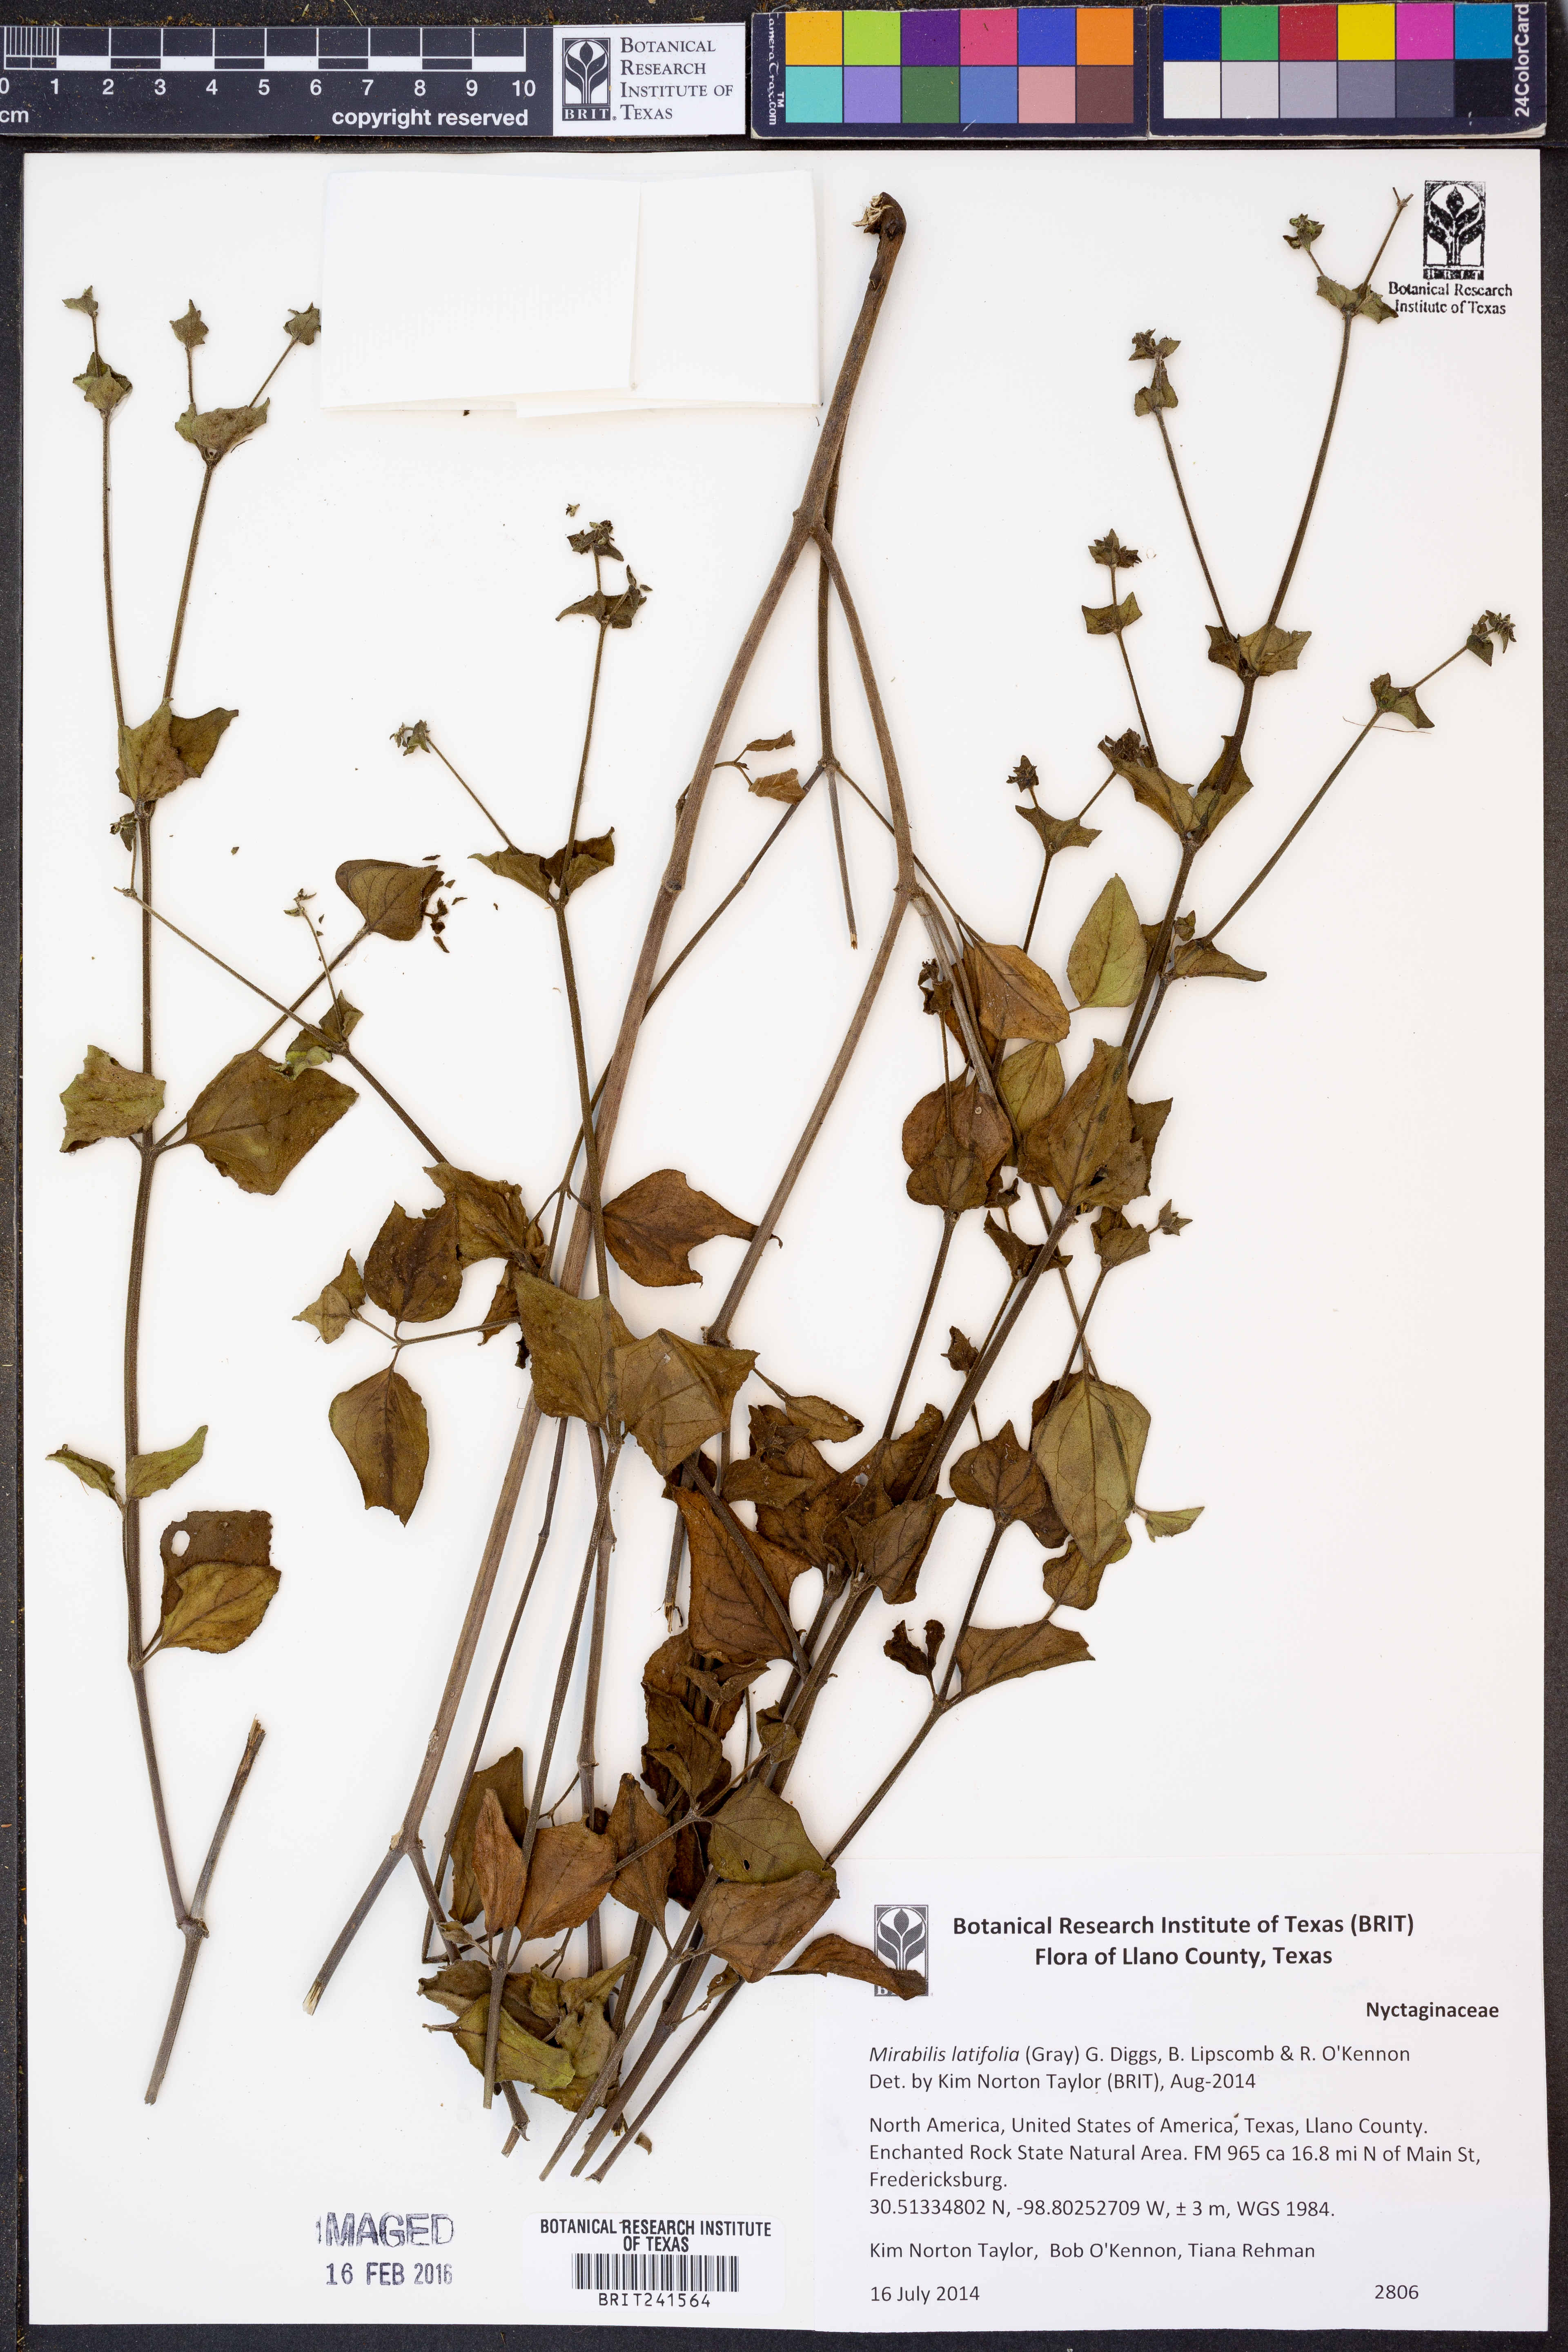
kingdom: Plantae
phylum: Tracheophyta
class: Magnoliopsida
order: Caryophyllales
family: Nyctaginaceae
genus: Mirabilis
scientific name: Mirabilis latifolia
